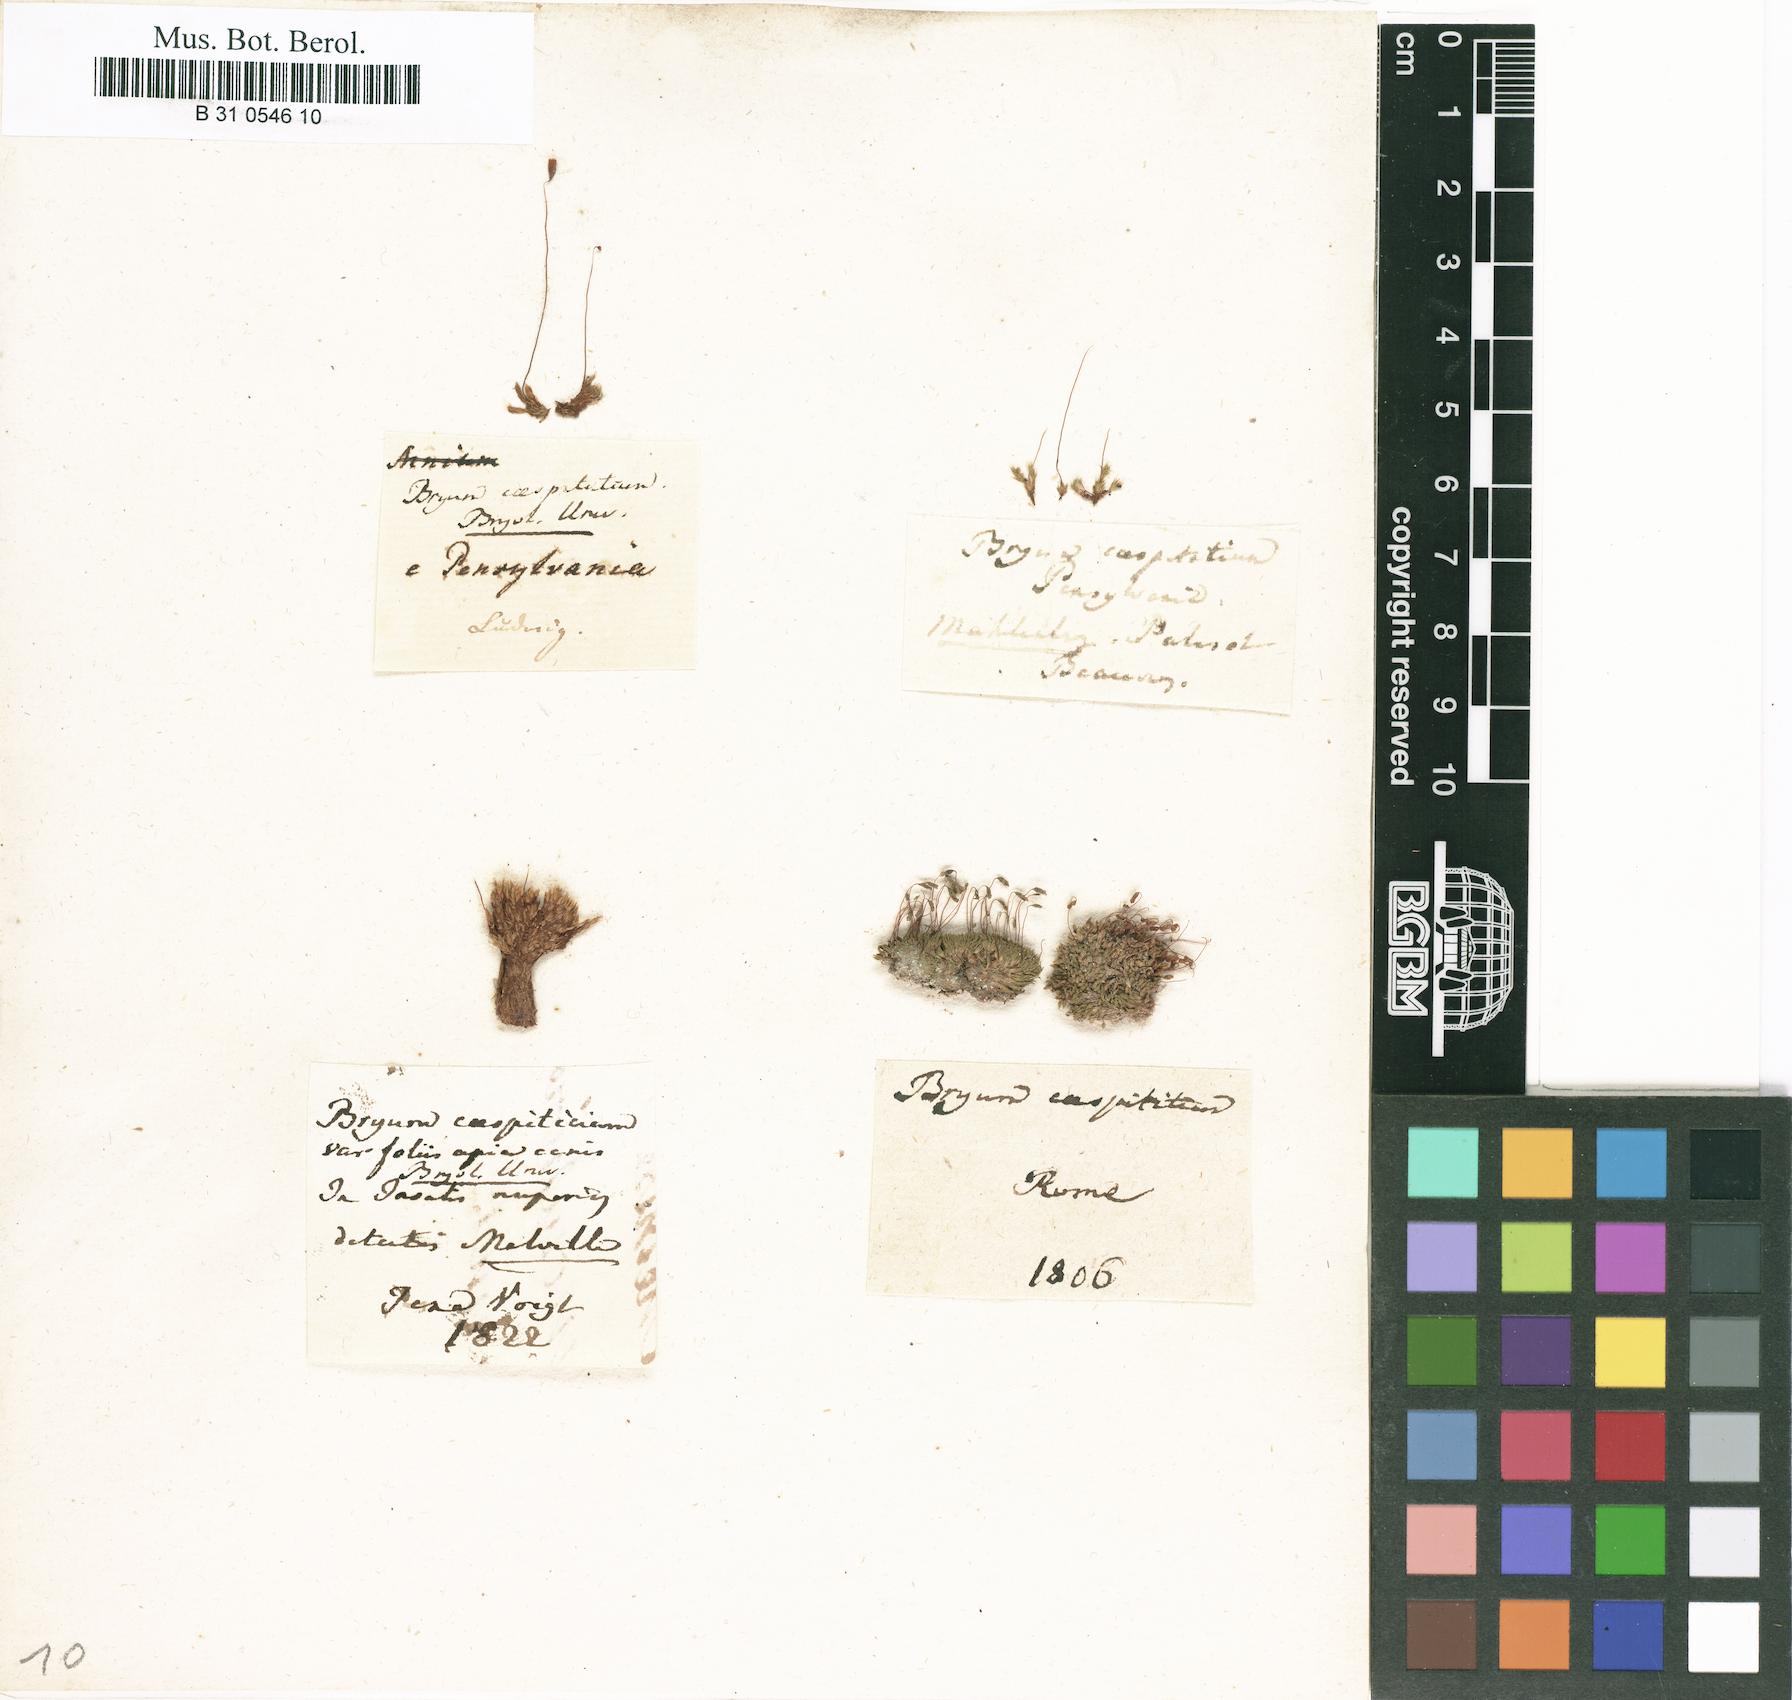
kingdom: Plantae
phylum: Bryophyta
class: Bryopsida
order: Bryales
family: Bryaceae
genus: Gemmabryum
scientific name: Gemmabryum caespiticium
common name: Handbell moss
